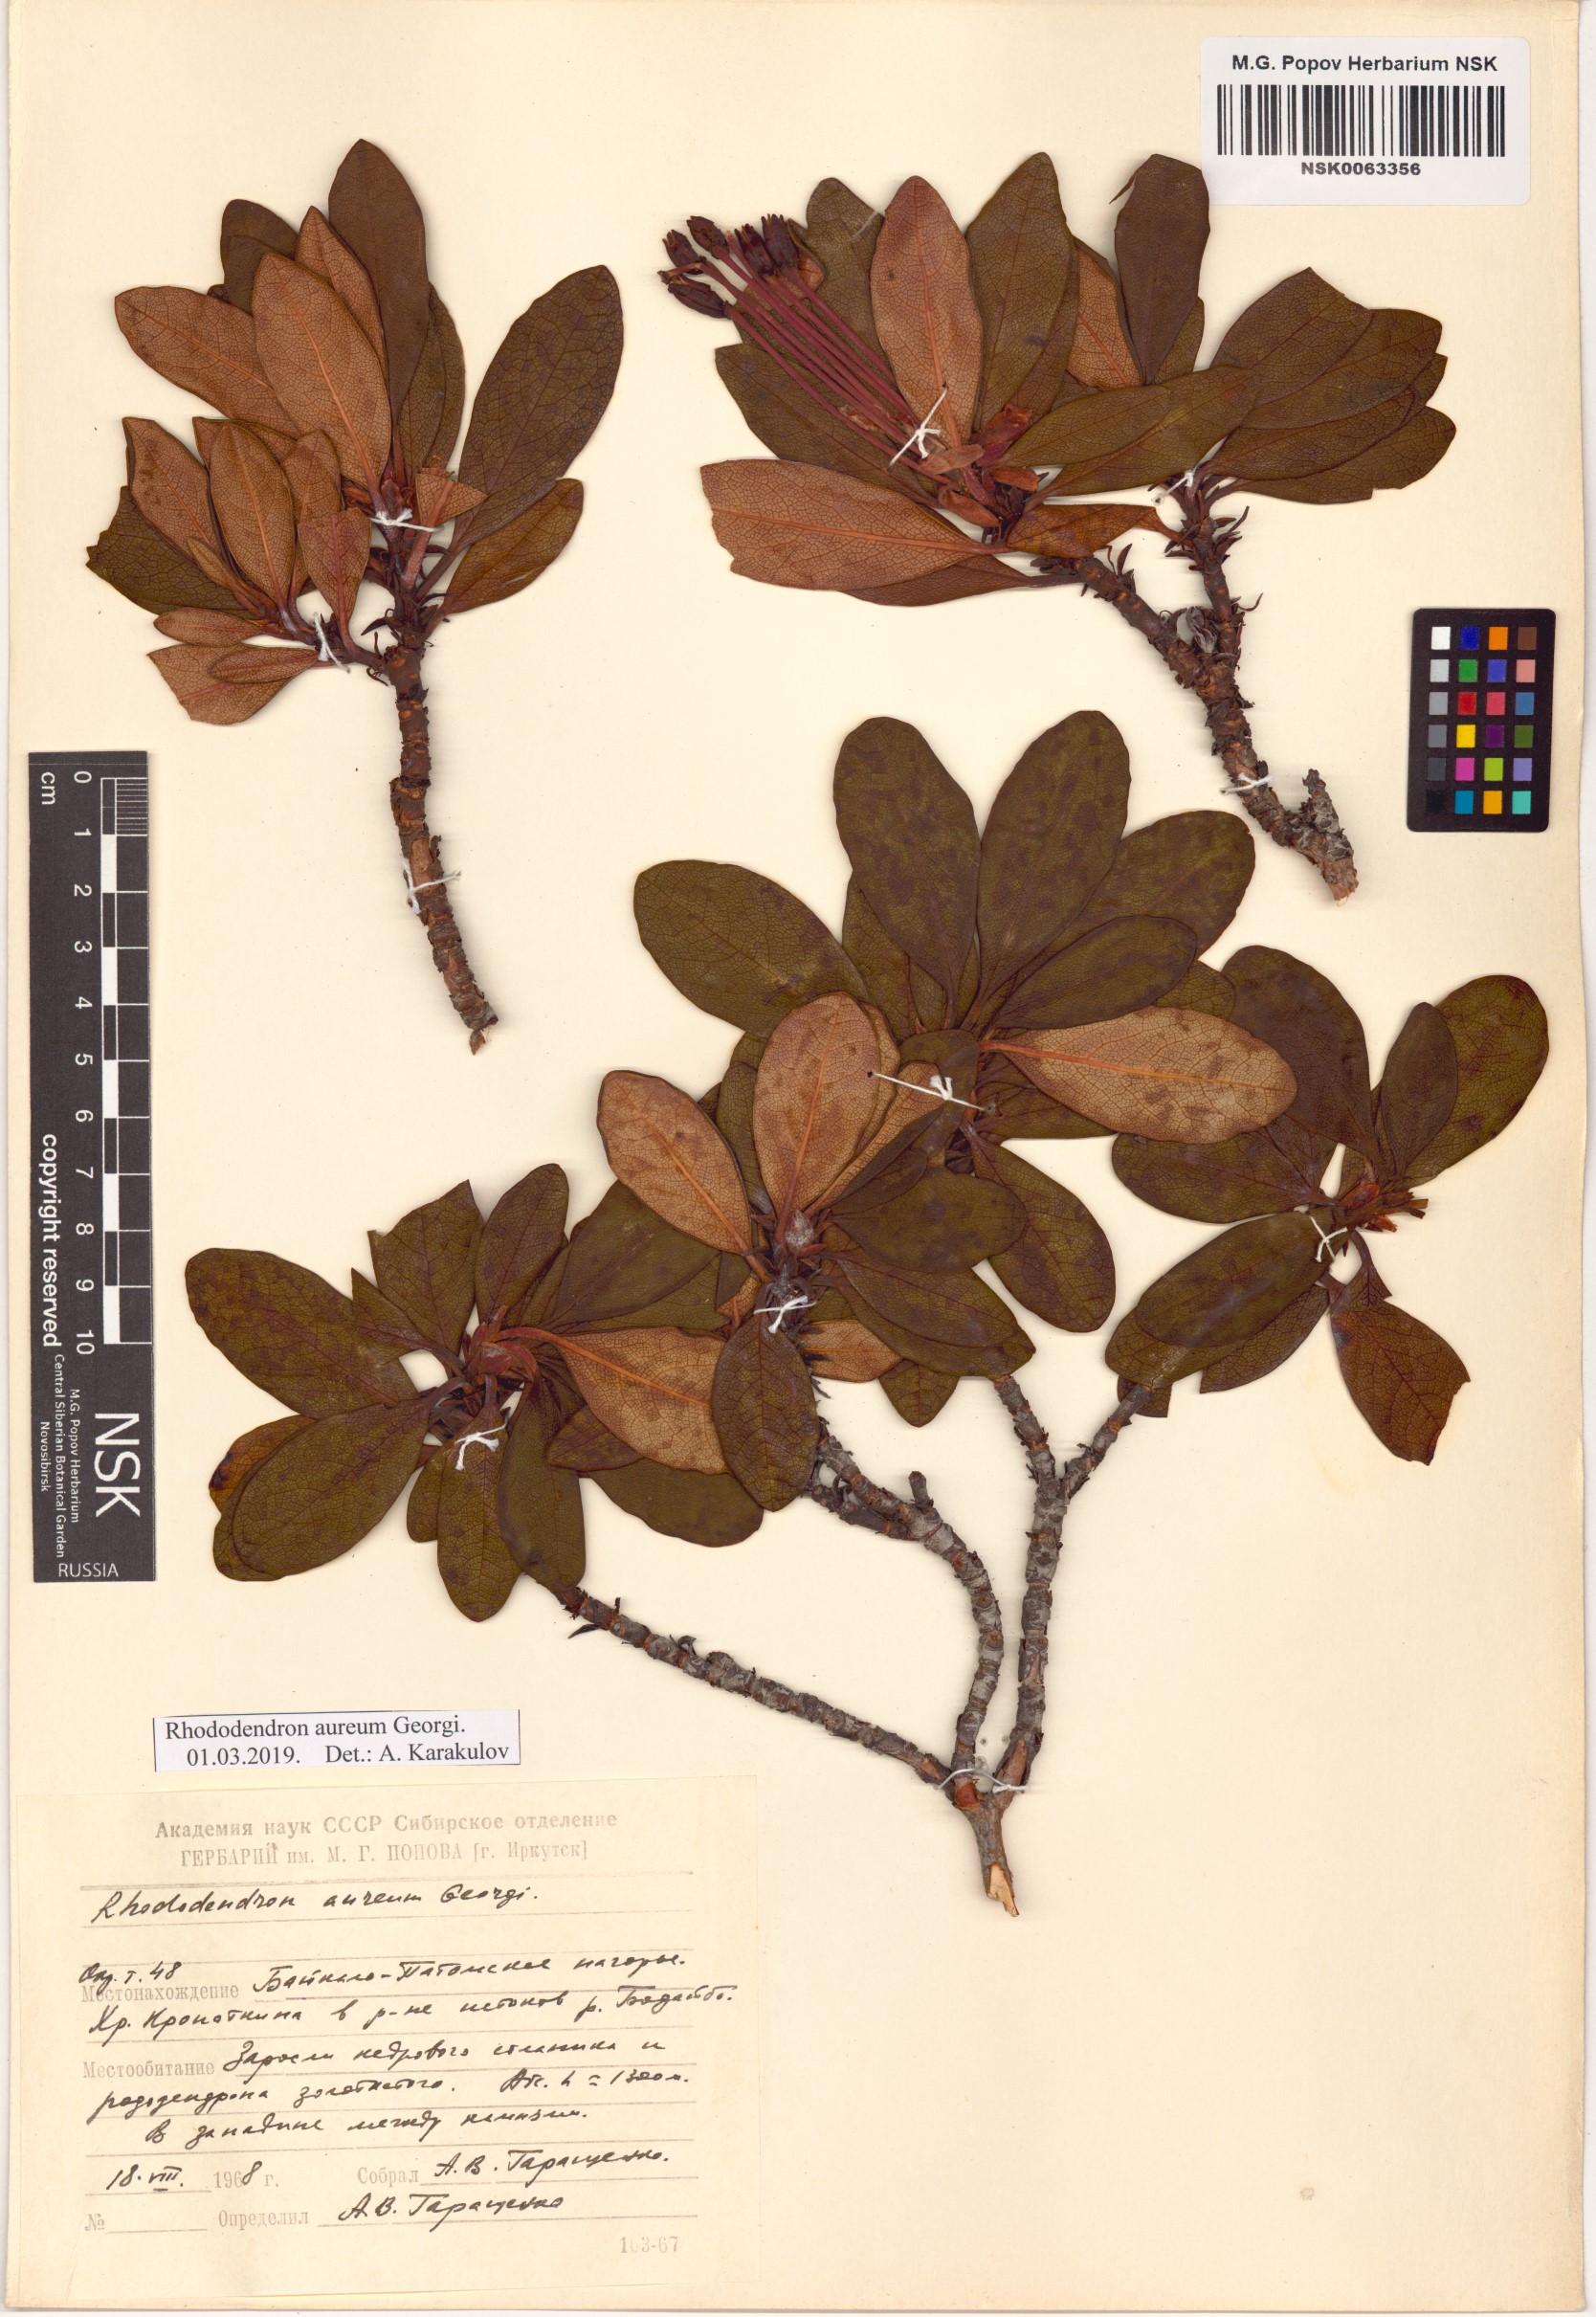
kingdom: Plantae
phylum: Tracheophyta
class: Magnoliopsida
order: Ericales
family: Ericaceae
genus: Rhododendron
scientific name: Rhododendron aureum
